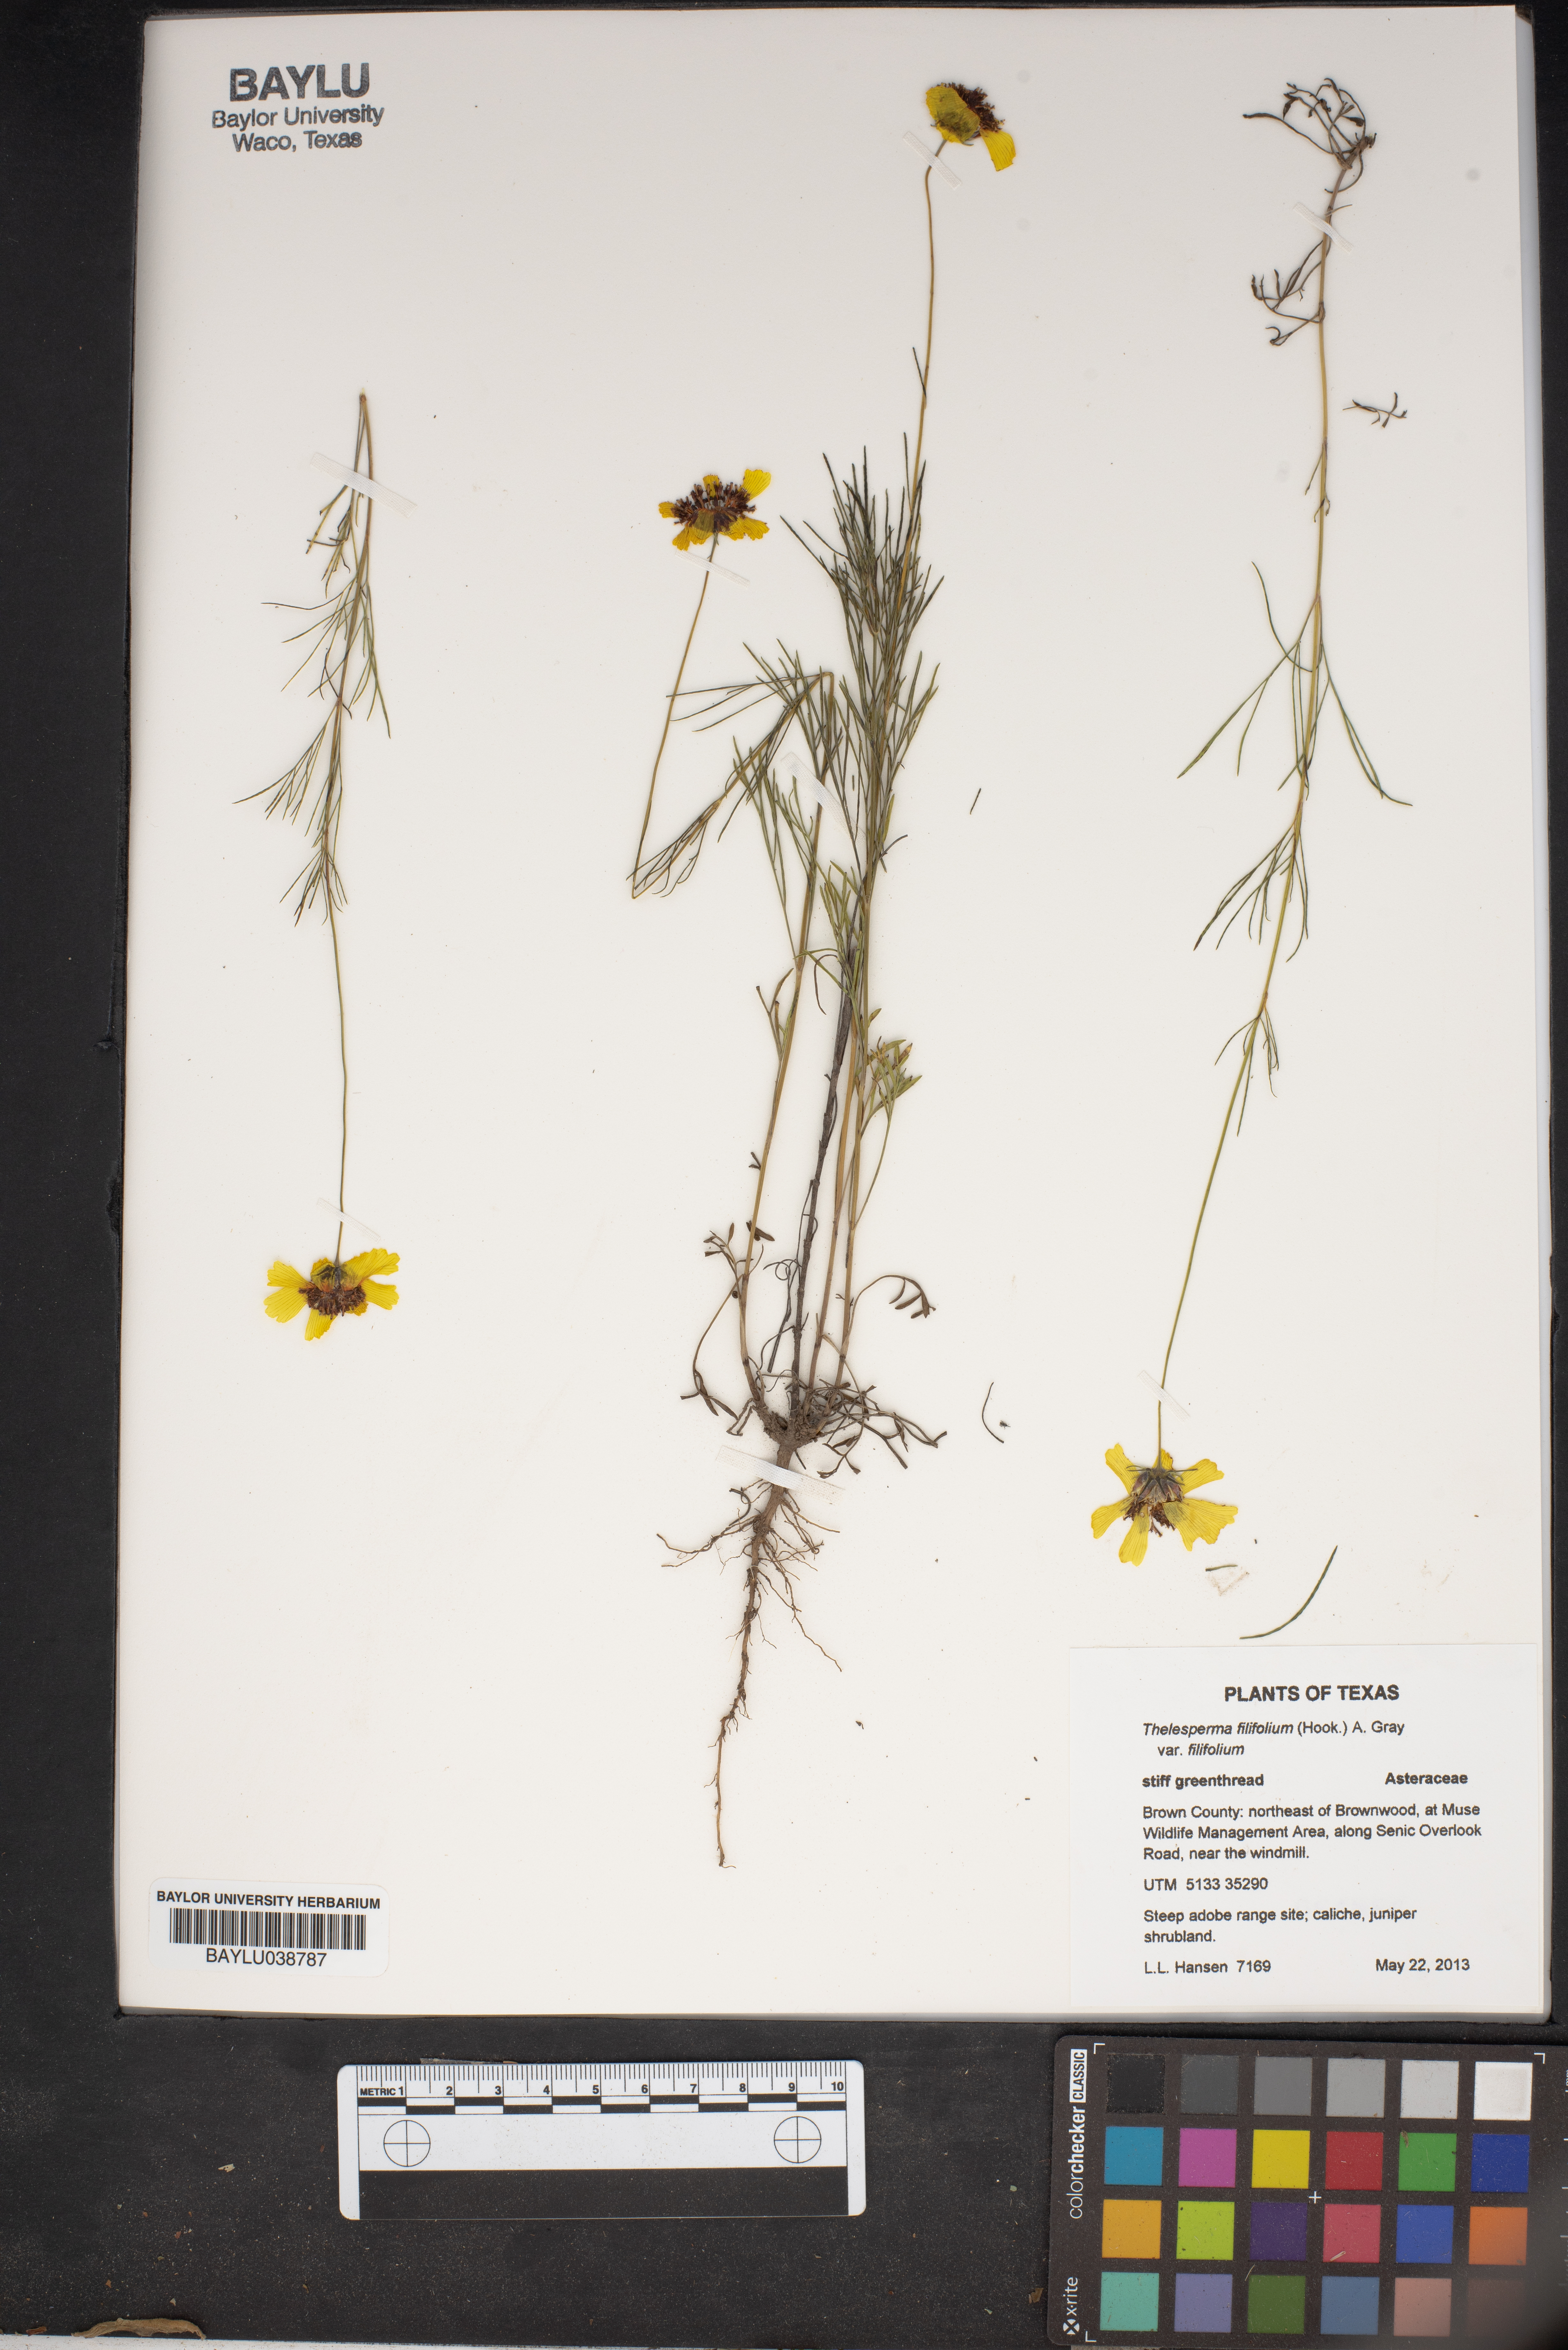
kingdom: Plantae
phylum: Tracheophyta
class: Magnoliopsida
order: Asterales
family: Asteraceae
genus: Thelesperma
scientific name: Thelesperma filifolium
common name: Stiff greenthread
